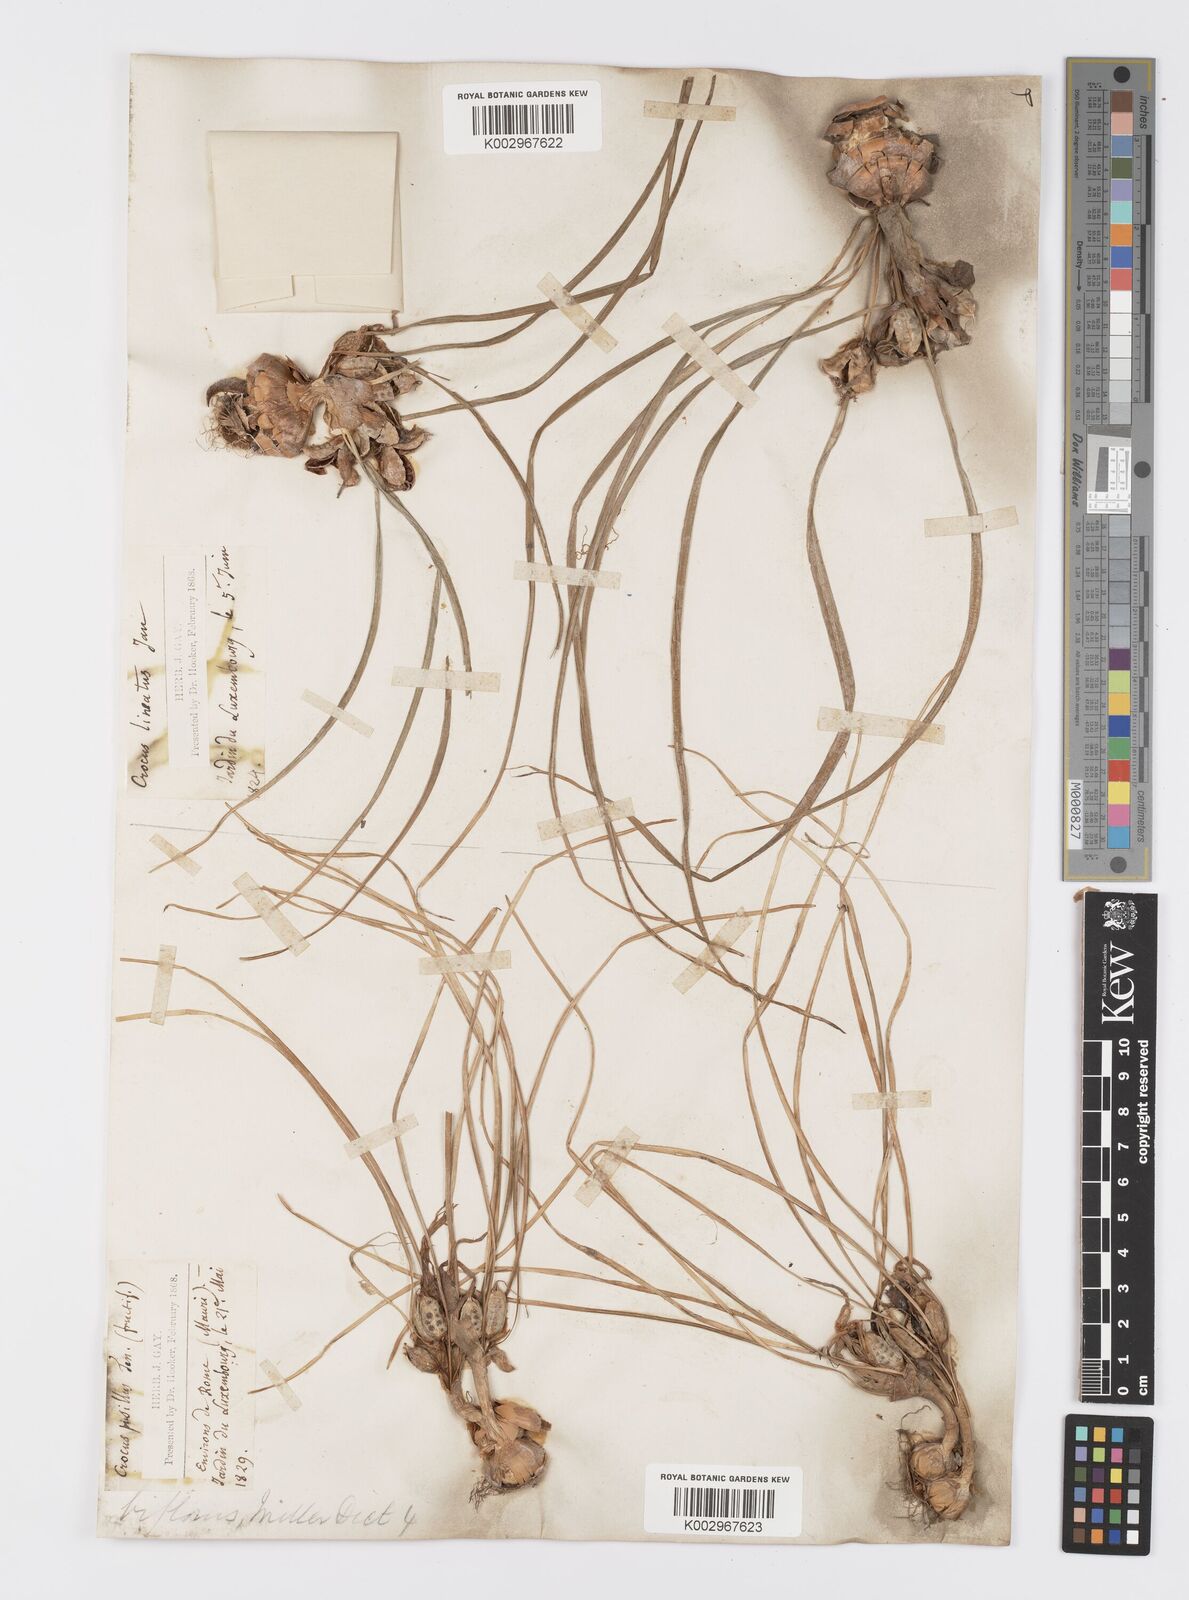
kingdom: Plantae
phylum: Tracheophyta
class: Liliopsida
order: Asparagales
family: Iridaceae
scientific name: Iridaceae
